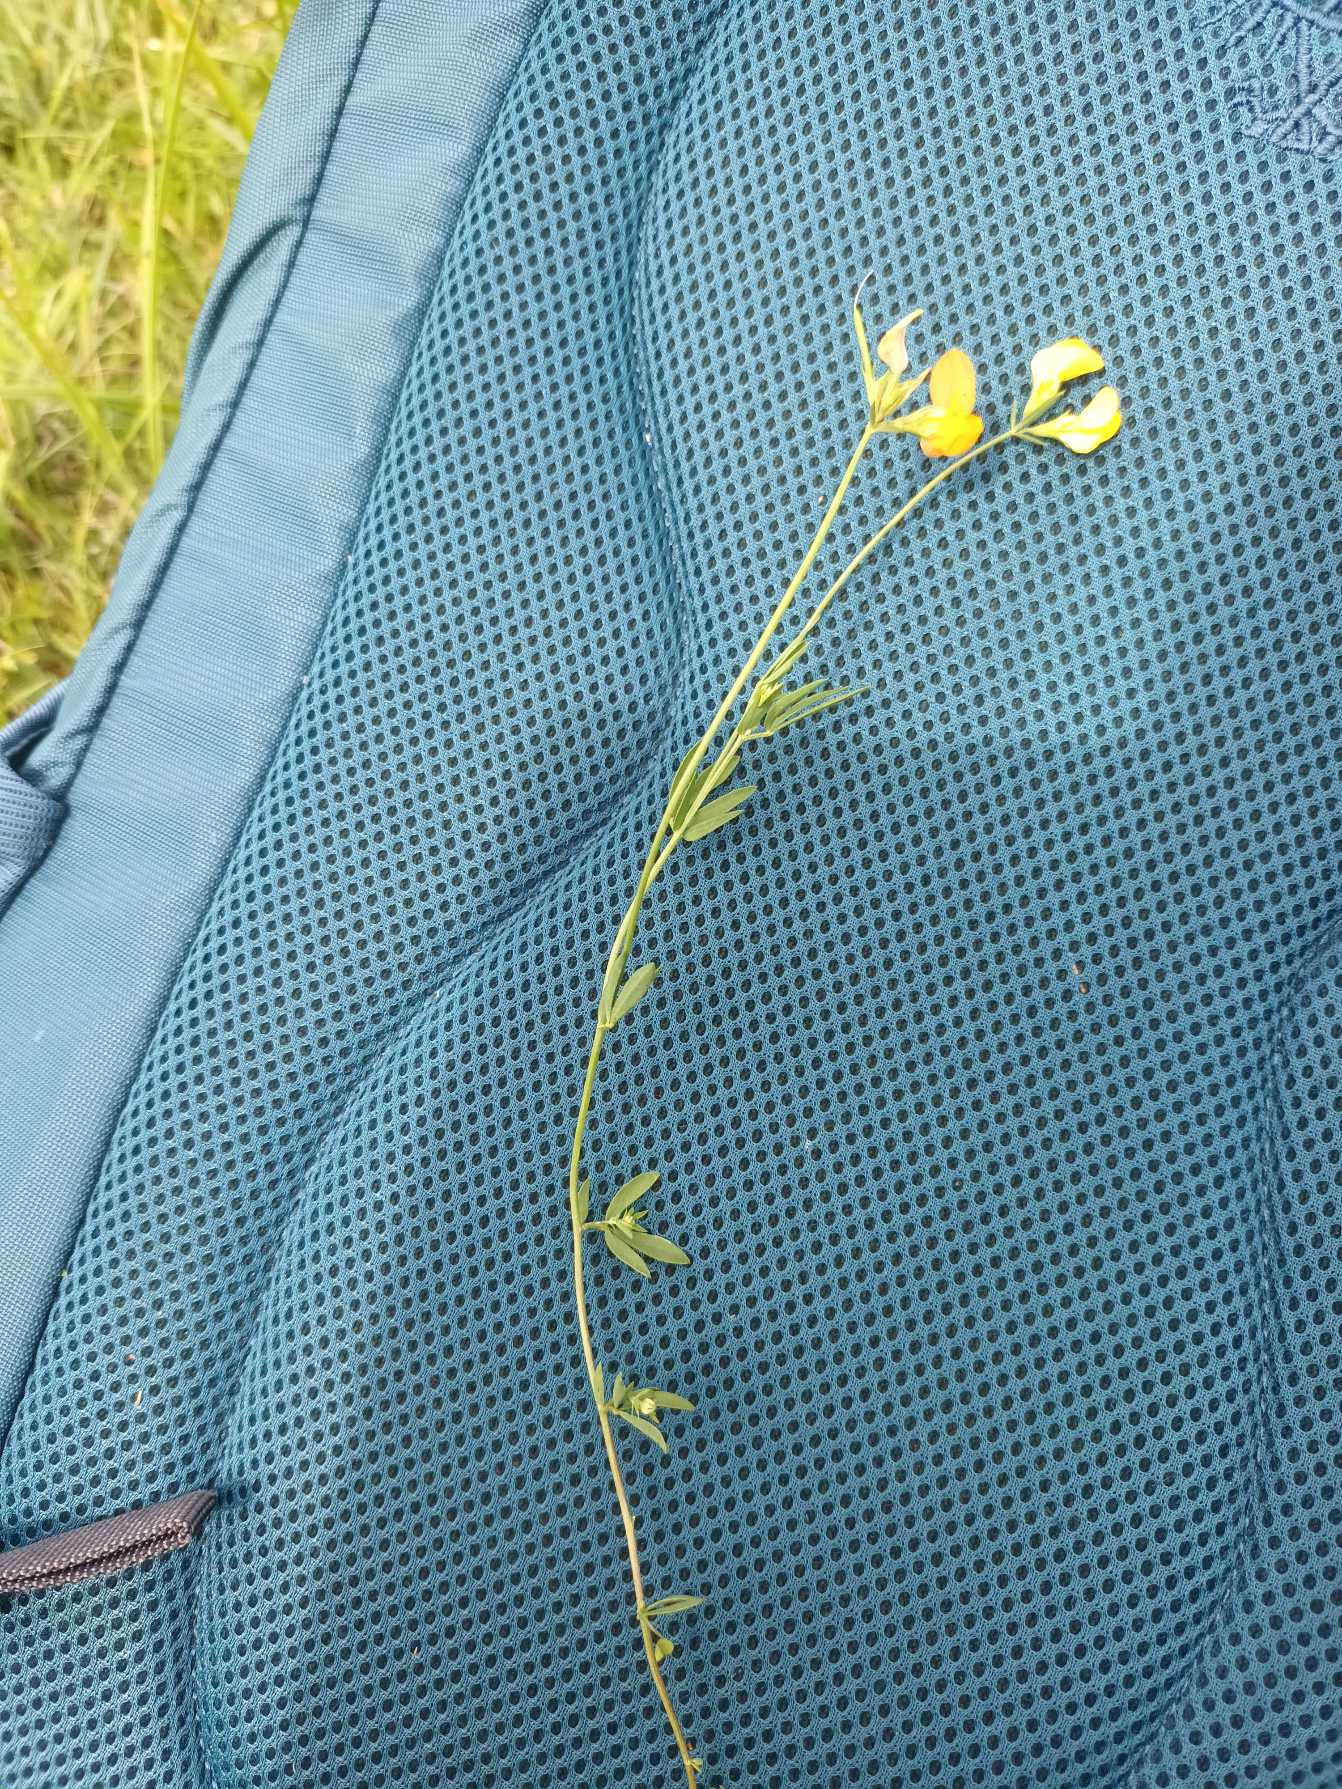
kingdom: Plantae
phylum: Tracheophyta
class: Magnoliopsida
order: Fabales
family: Fabaceae
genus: Lotus
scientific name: Lotus tenuis
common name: Smalbladet kællingetand
